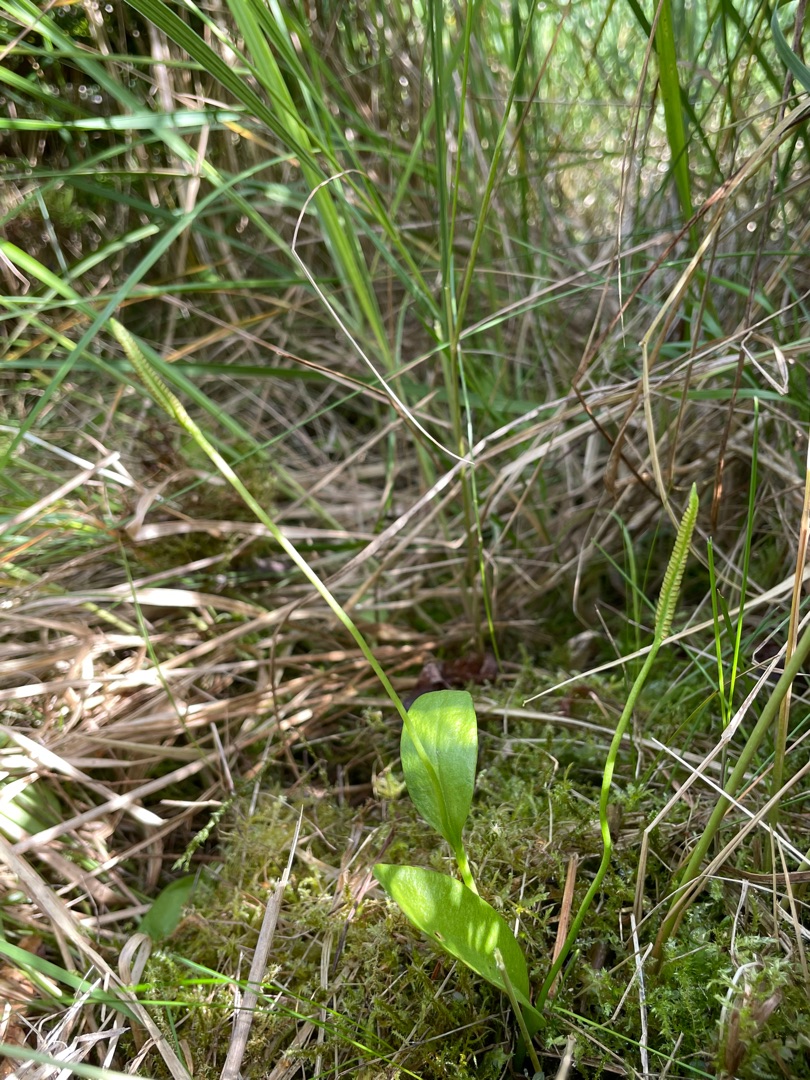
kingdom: Plantae
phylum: Tracheophyta
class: Polypodiopsida
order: Ophioglossales
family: Ophioglossaceae
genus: Ophioglossum
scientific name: Ophioglossum vulgatum
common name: Slangetunge
